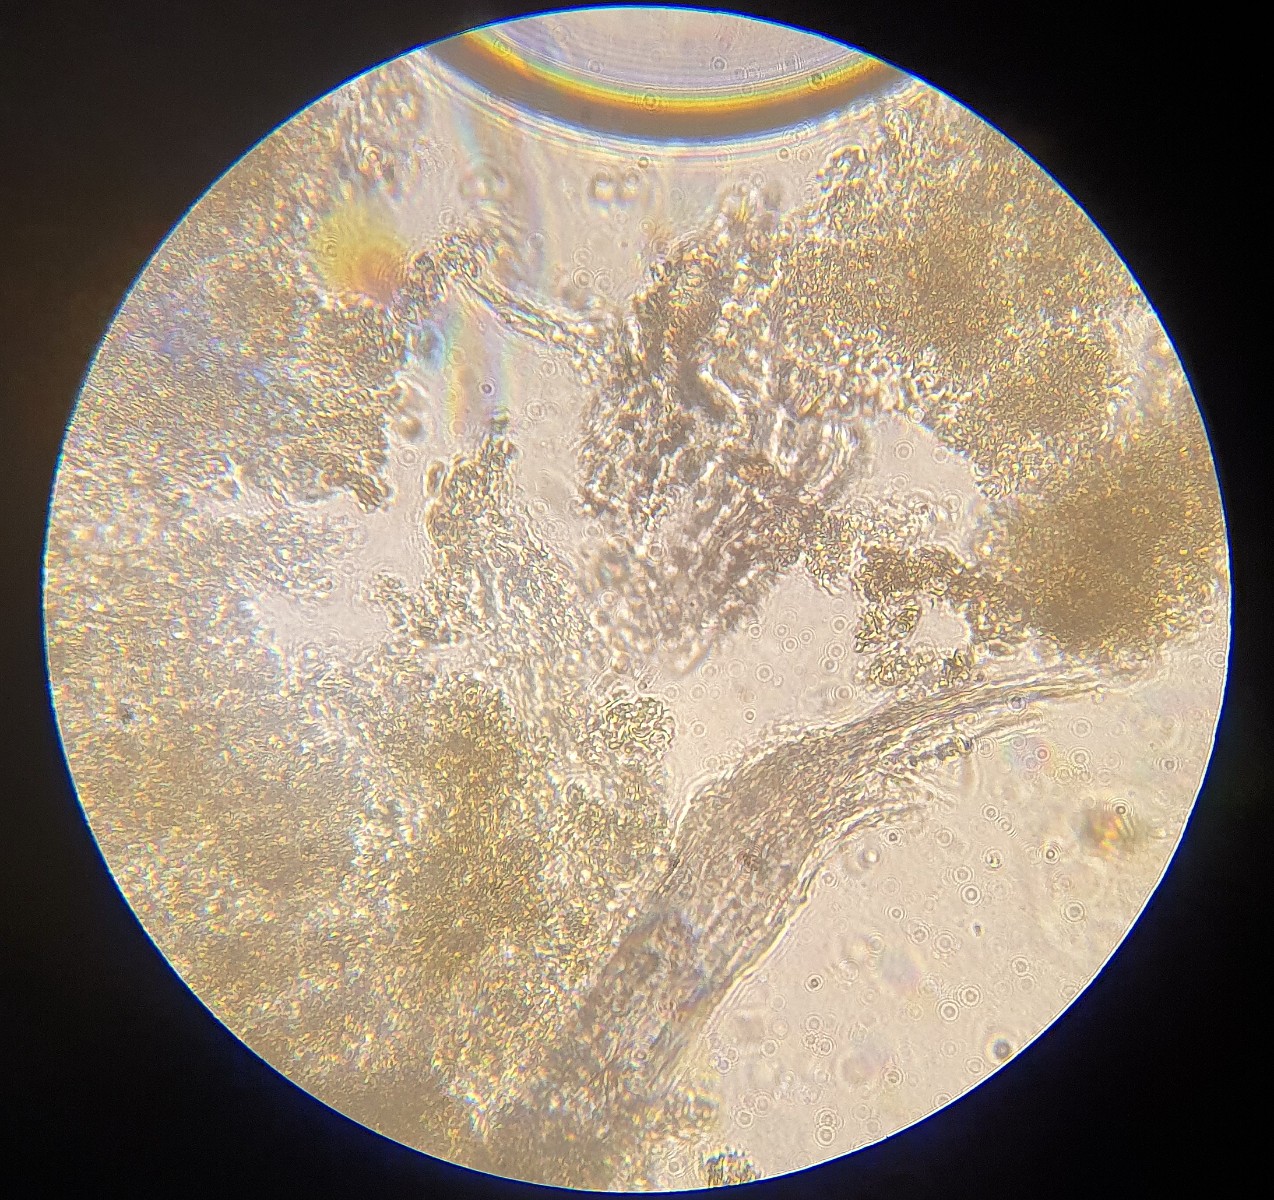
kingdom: Fungi
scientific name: Fungi
